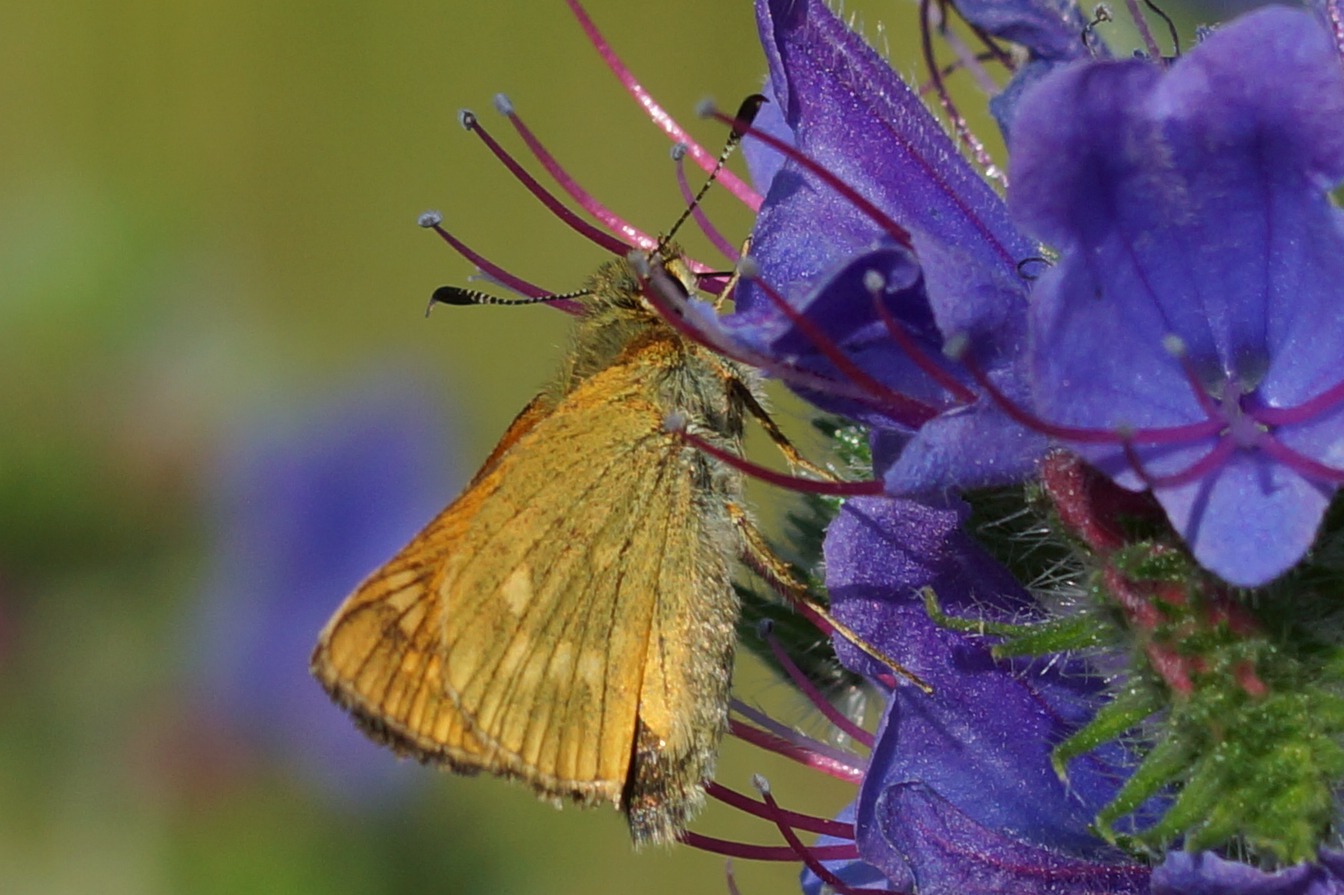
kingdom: Animalia
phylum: Arthropoda
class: Insecta
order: Lepidoptera
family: Hesperiidae
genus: Ochlodes
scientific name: Ochlodes venata
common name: Stor bredpande
